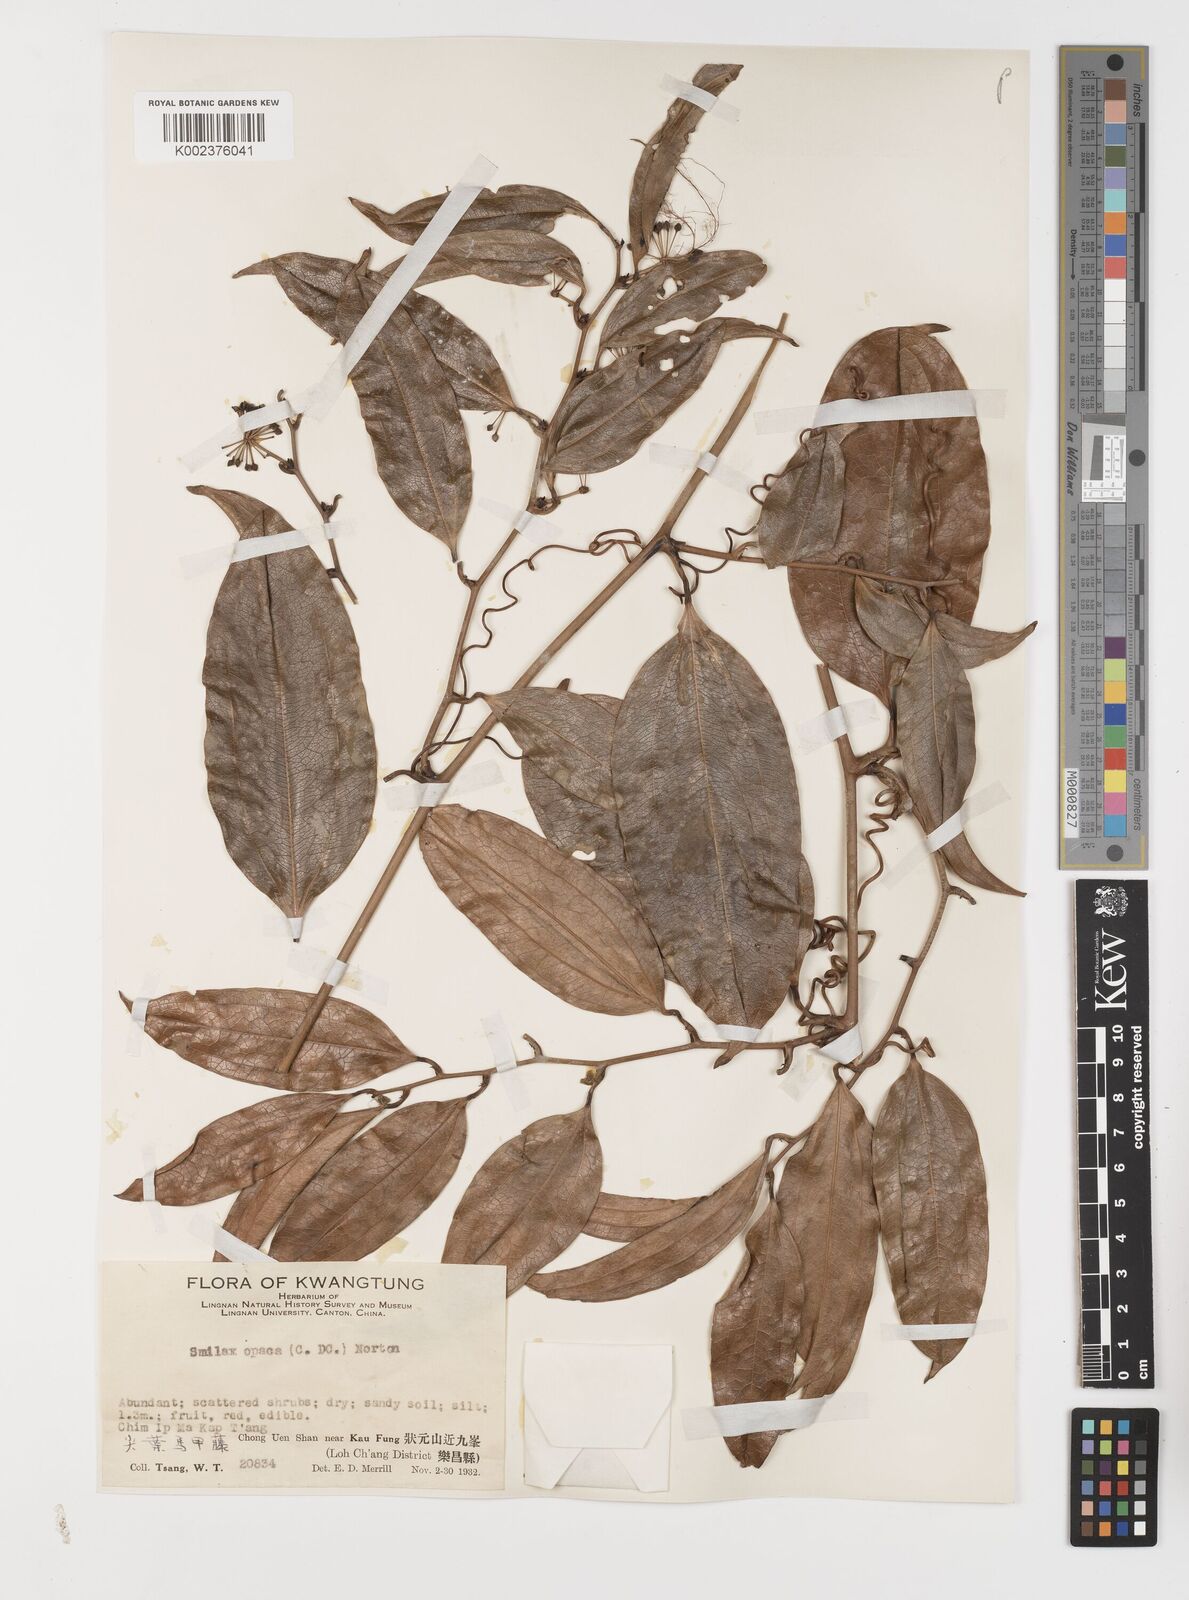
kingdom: Plantae
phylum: Tracheophyta
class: Liliopsida
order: Liliales
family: Smilacaceae
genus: Smilax
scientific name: Smilax laevis
